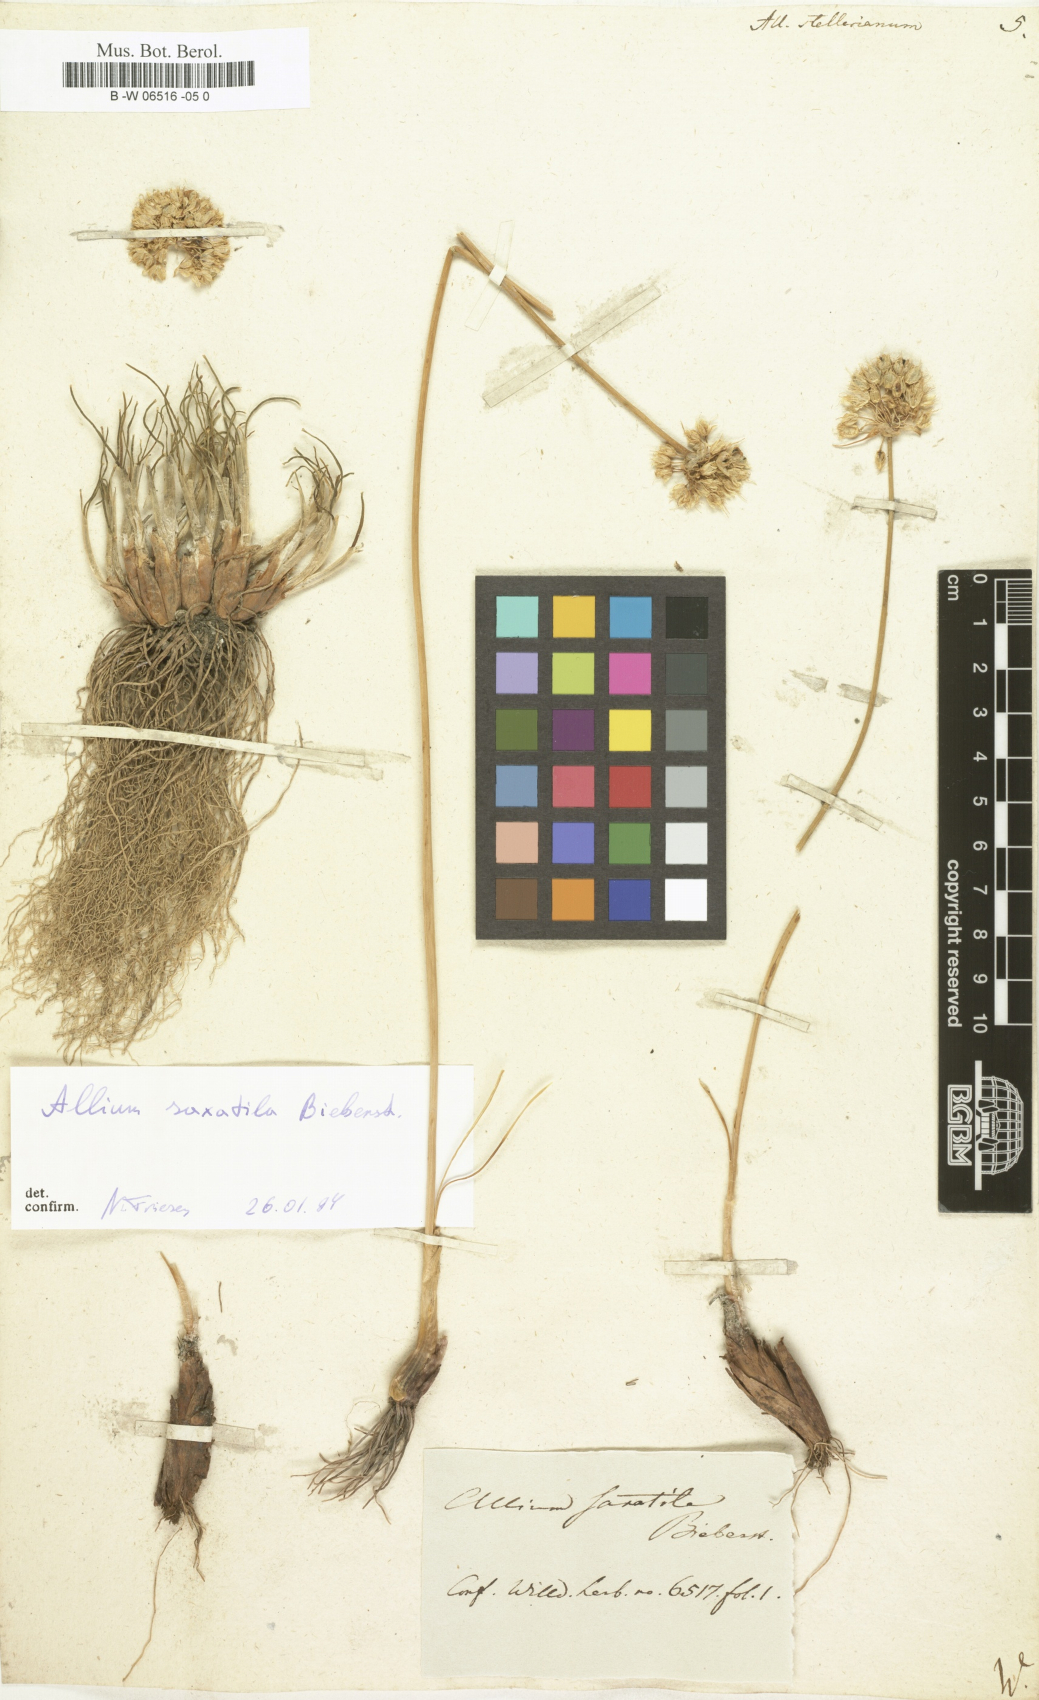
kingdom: Plantae
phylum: Tracheophyta
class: Liliopsida
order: Asparagales
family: Amaryllidaceae
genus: Allium
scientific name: Allium stellerianum
